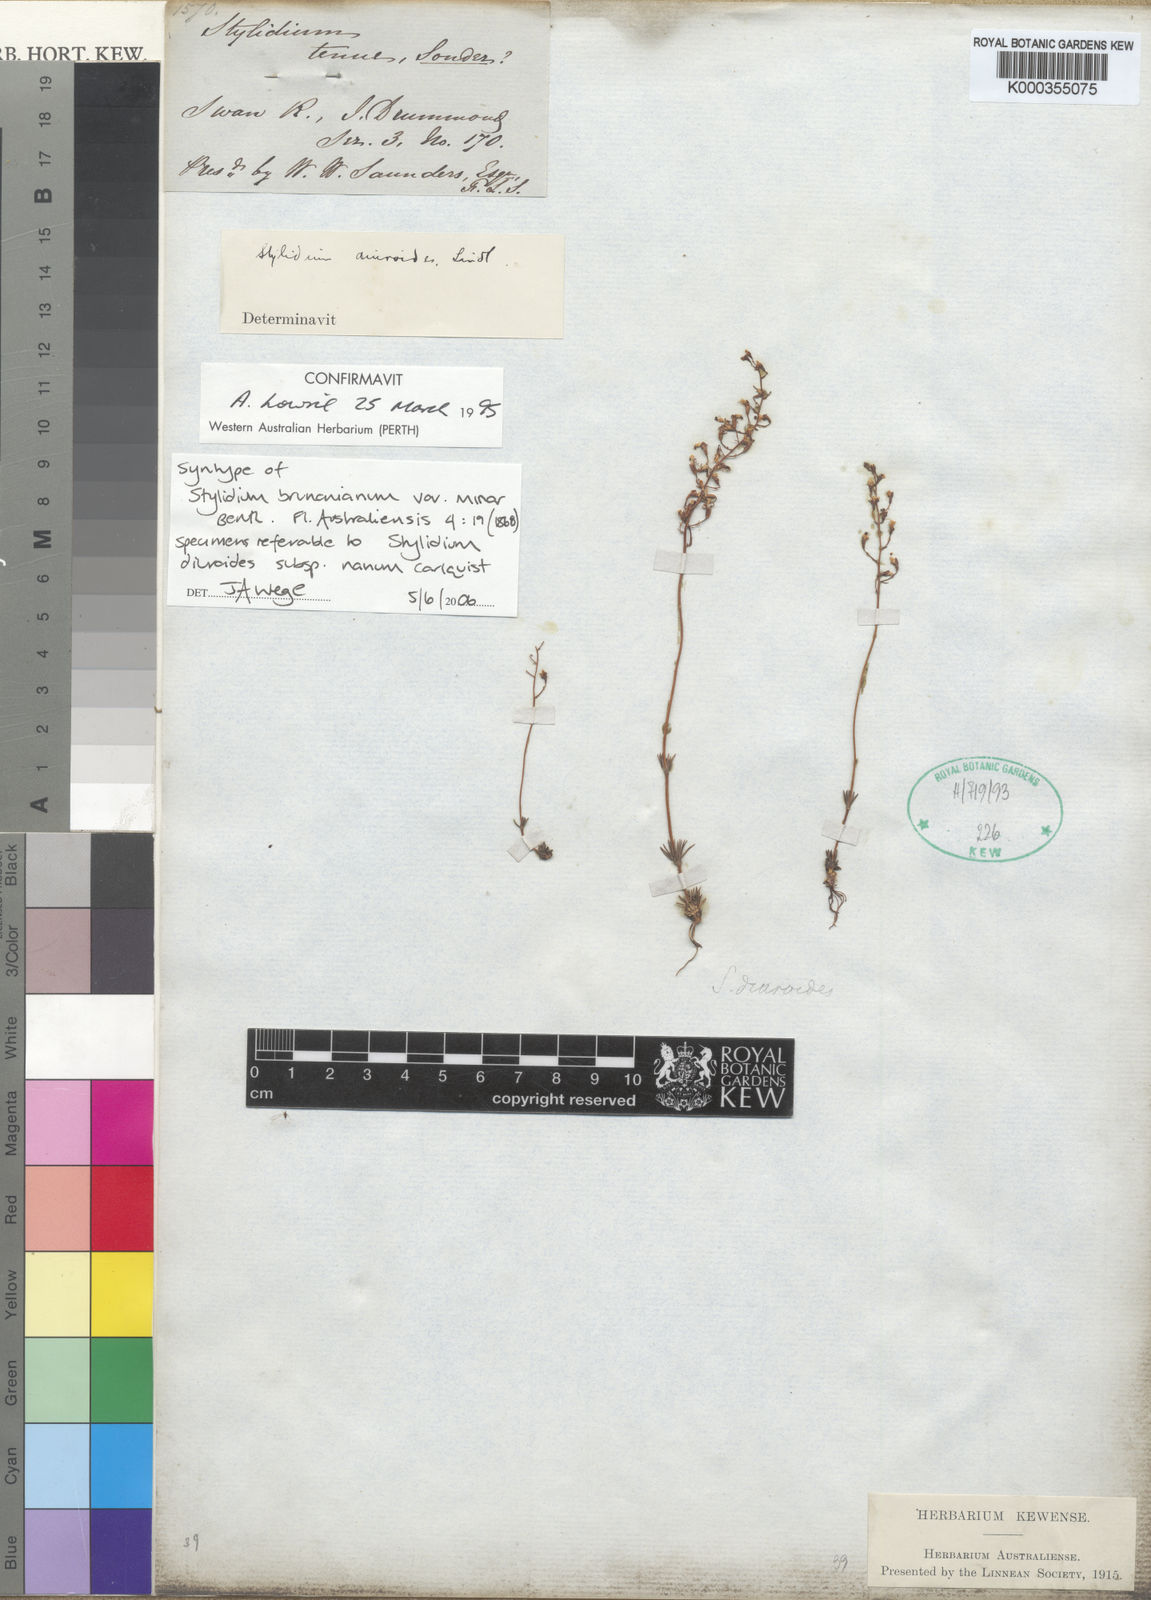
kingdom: Plantae
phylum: Tracheophyta
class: Magnoliopsida
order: Asterales
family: Stylidiaceae
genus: Stylidium
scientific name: Stylidium diuroides
